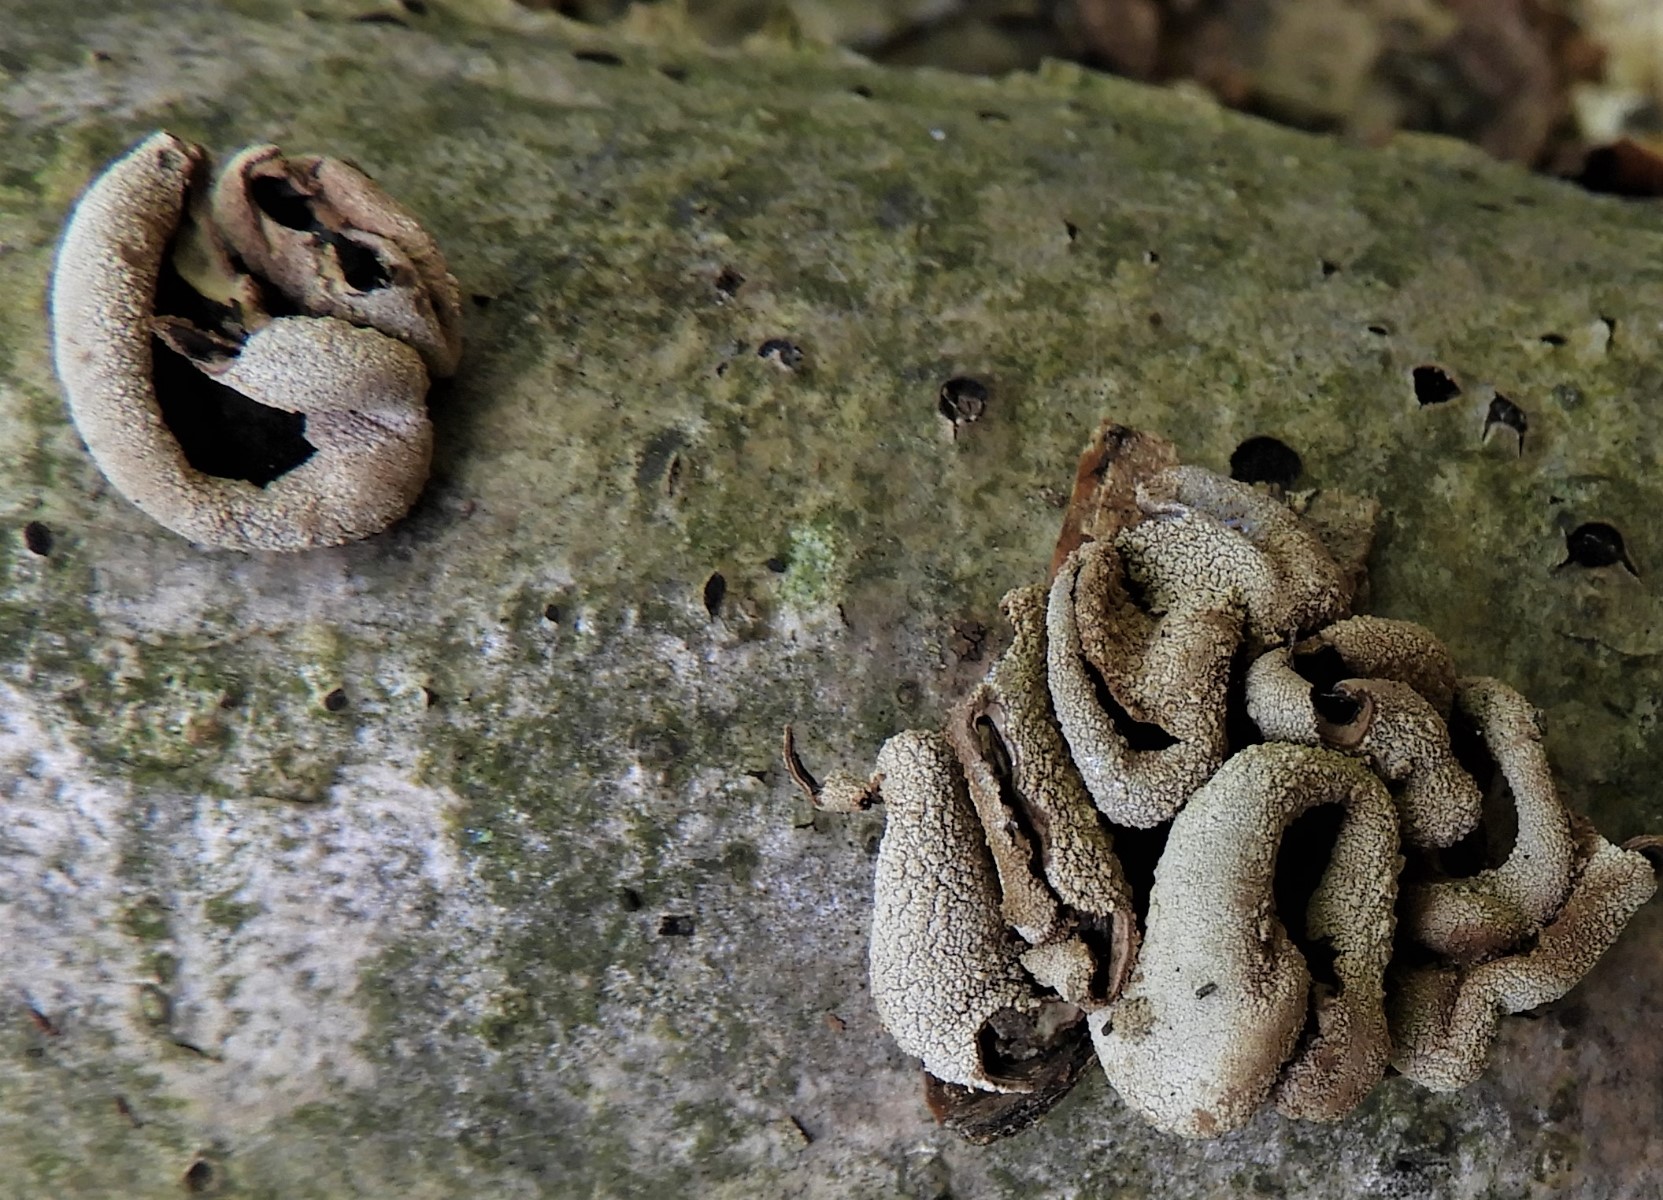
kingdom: Fungi
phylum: Ascomycota
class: Leotiomycetes
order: Helotiales
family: Cenangiaceae
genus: Encoelia
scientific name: Encoelia furfuracea
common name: hassel-læderskive
